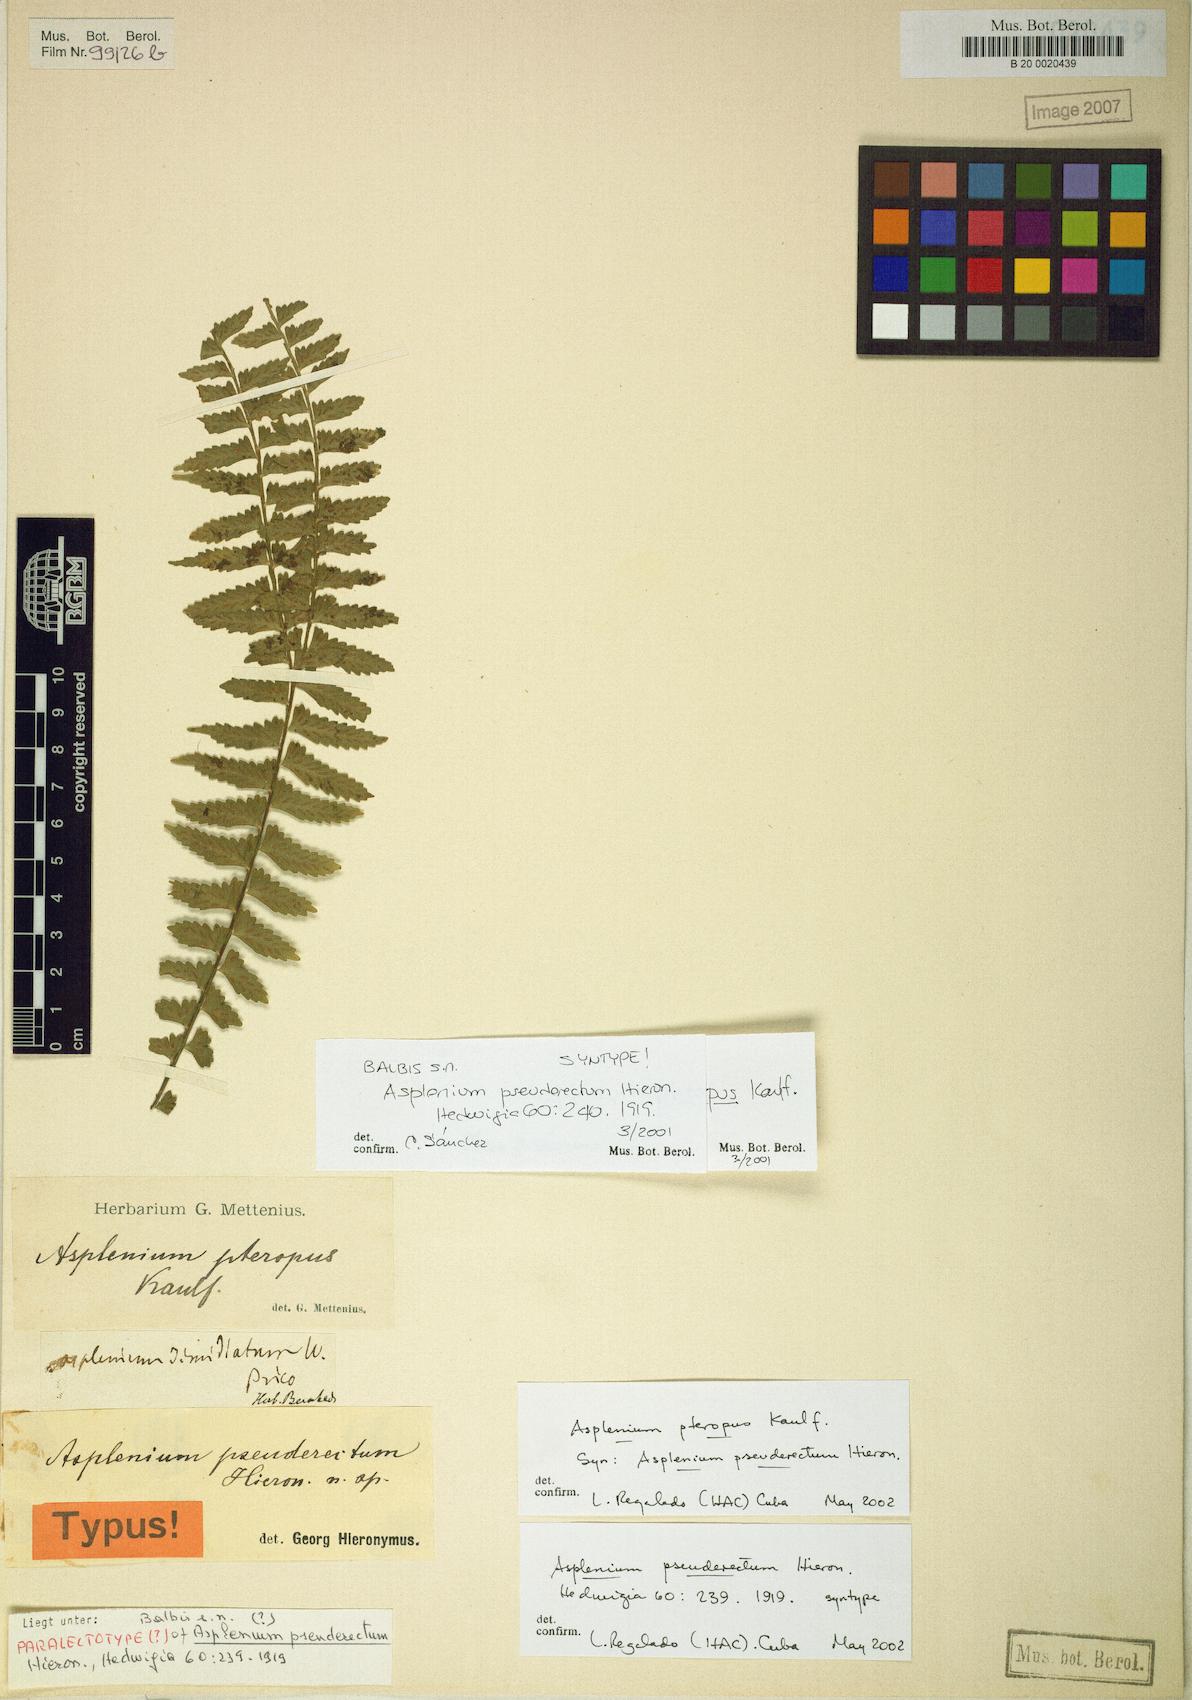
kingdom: Plantae
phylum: Tracheophyta
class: Polypodiopsida
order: Polypodiales
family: Aspleniaceae
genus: Asplenium
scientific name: Asplenium pseuderectum
